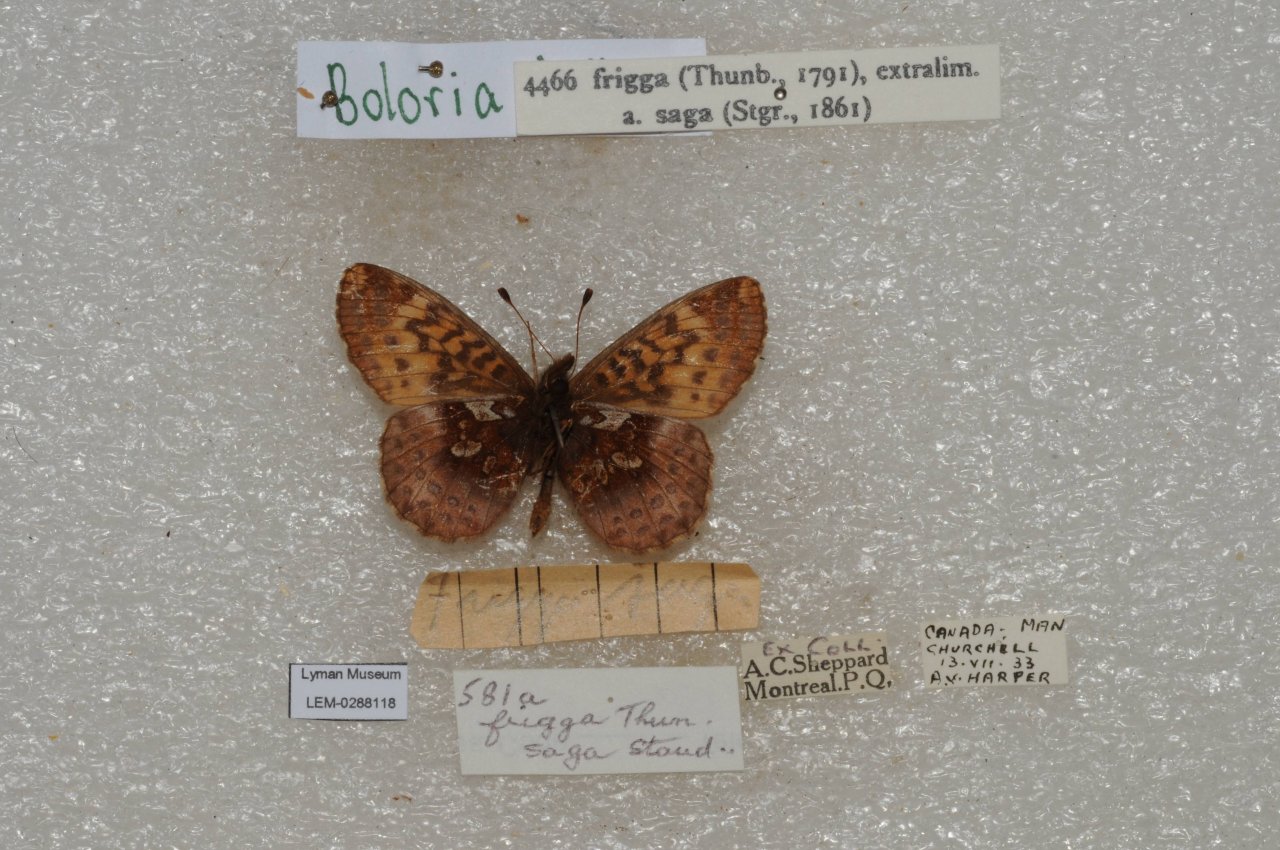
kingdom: Animalia
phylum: Arthropoda
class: Insecta
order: Lepidoptera
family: Nymphalidae
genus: Boloria
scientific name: Boloria frigga
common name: Frigga Fritillary
